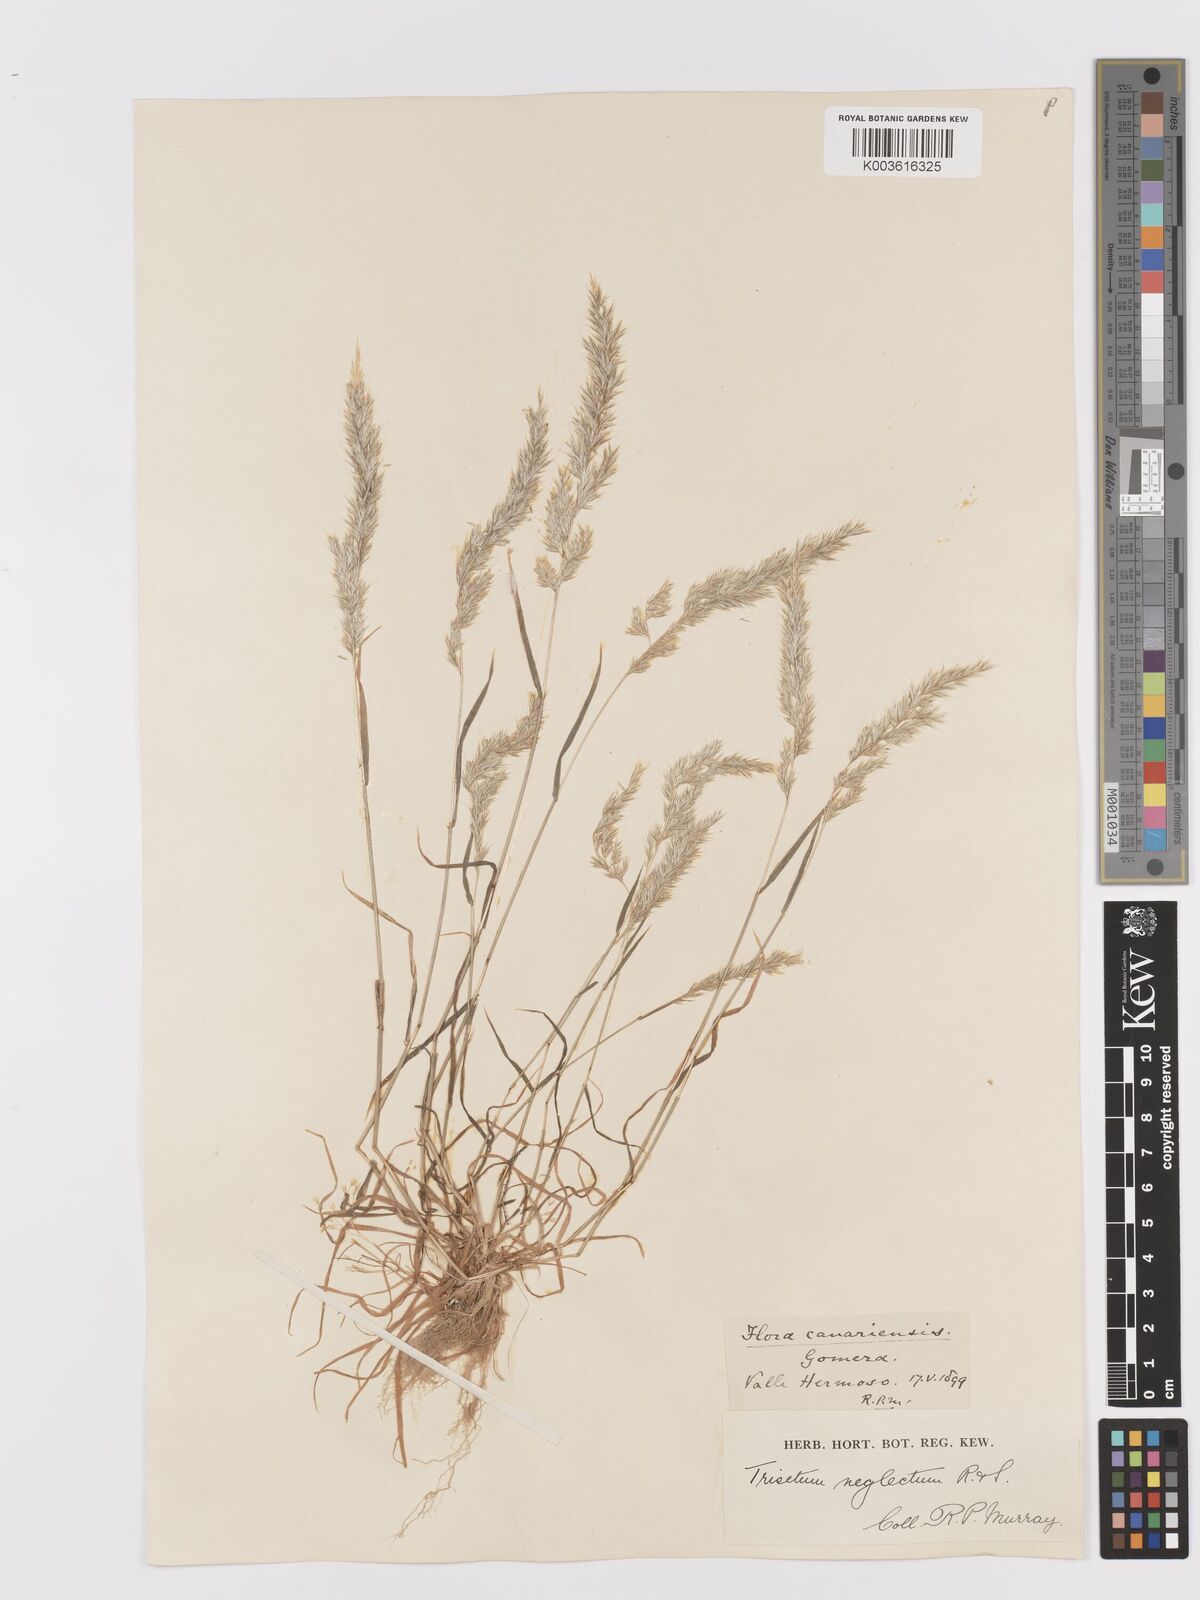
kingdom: Plantae
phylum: Tracheophyta
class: Liliopsida
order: Poales
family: Poaceae
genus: Trisetaria
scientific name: Trisetaria panicea
